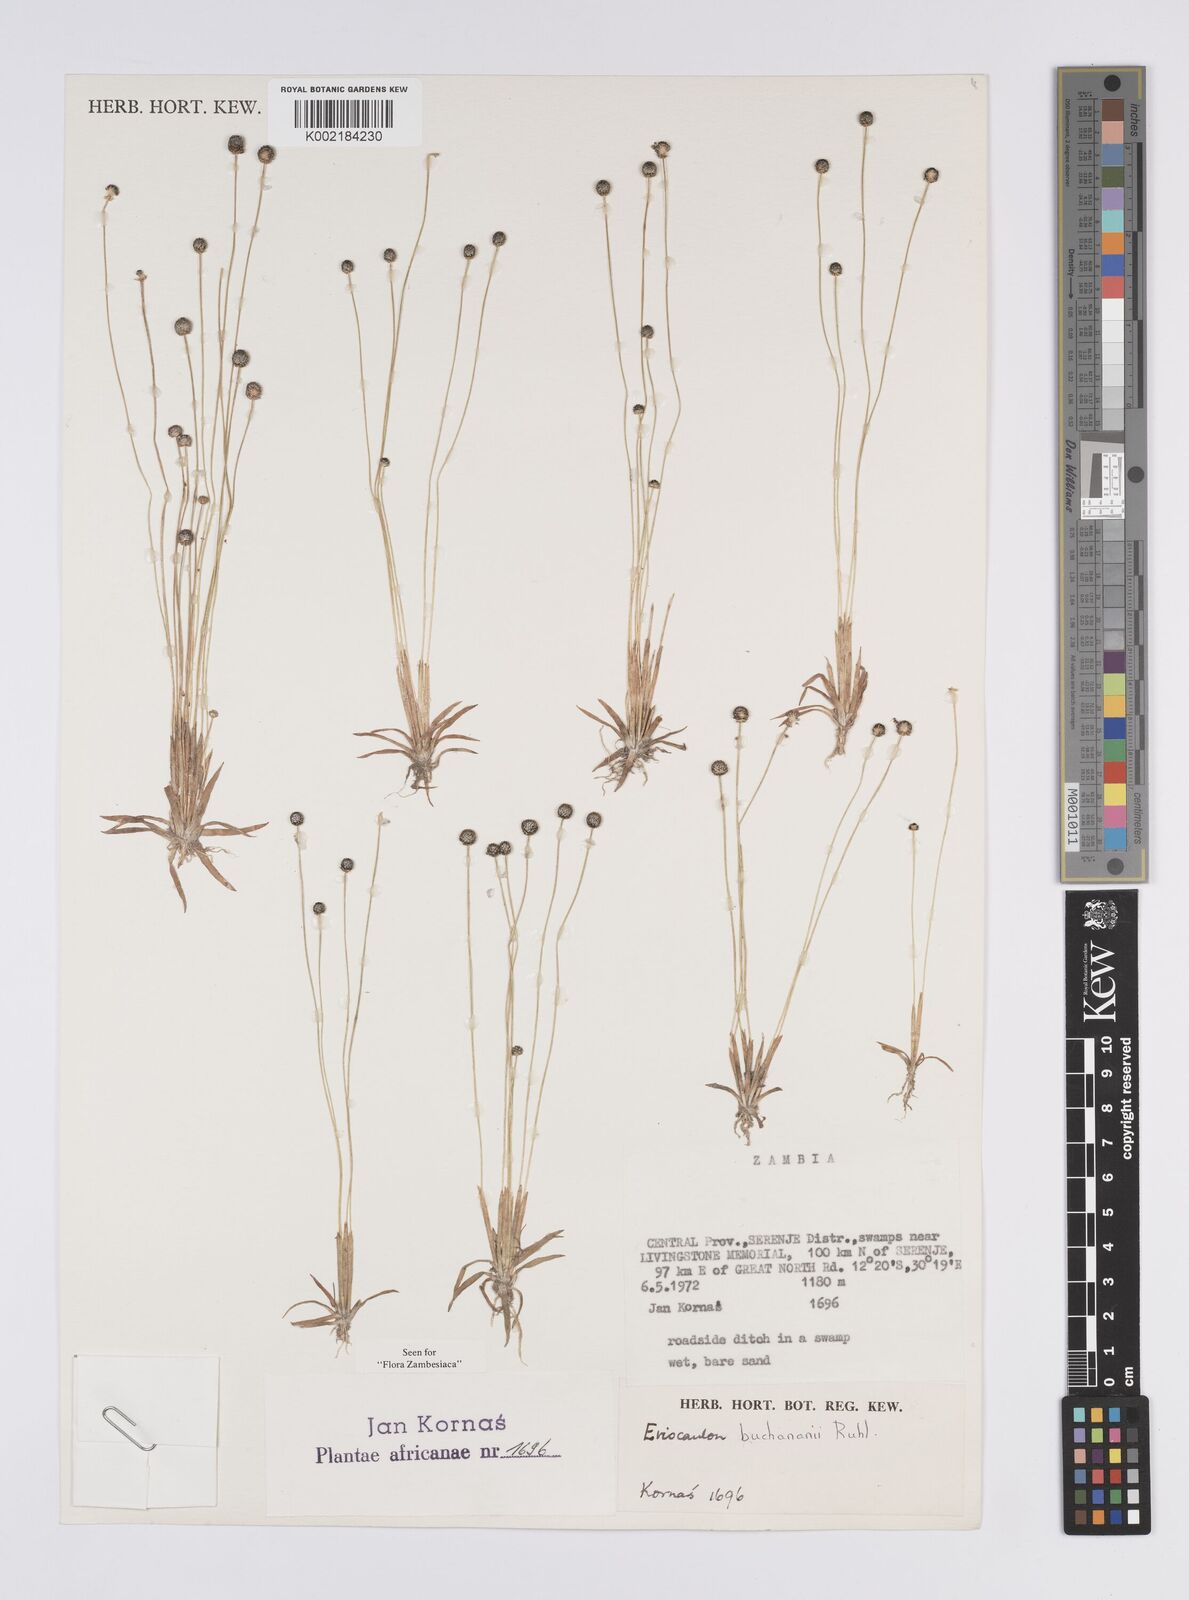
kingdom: Plantae
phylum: Tracheophyta
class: Liliopsida
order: Poales
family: Eriocaulaceae
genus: Eriocaulon
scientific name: Eriocaulon buchananii
